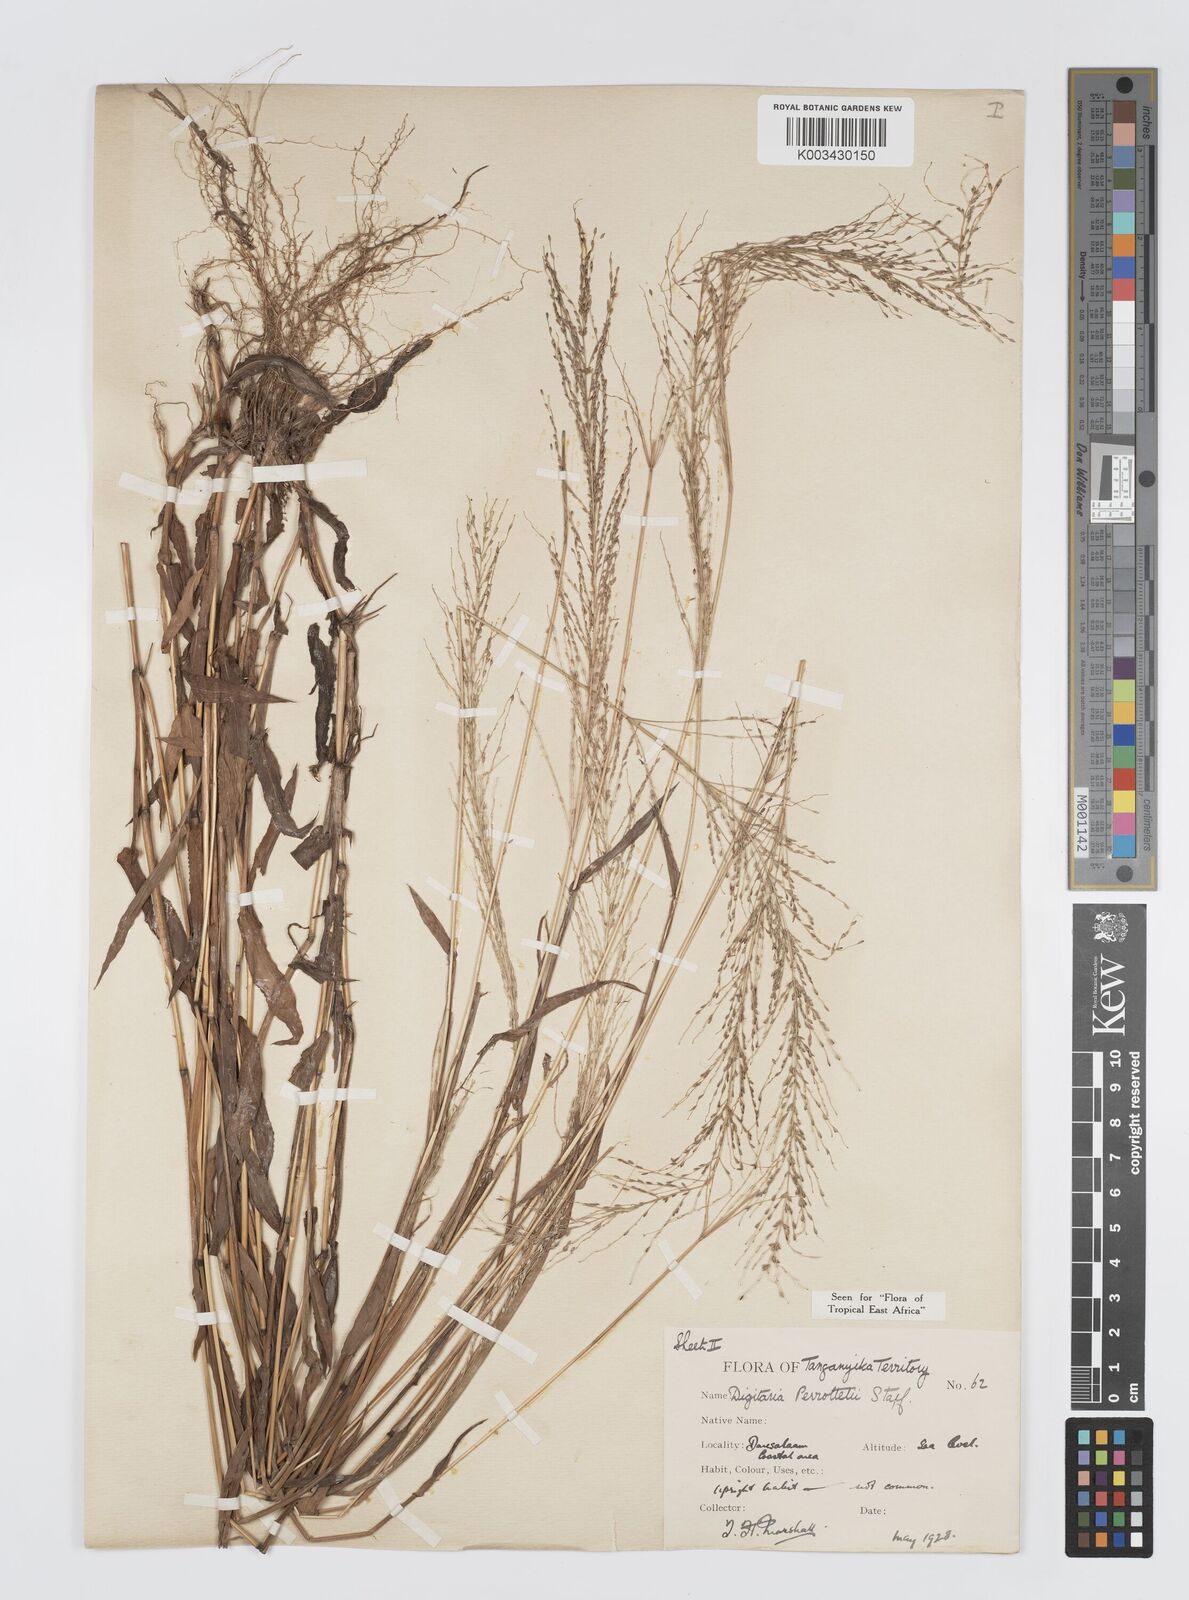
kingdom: Plantae
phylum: Tracheophyta
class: Liliopsida
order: Poales
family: Poaceae
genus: Digitaria
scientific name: Digitaria perrottetii
